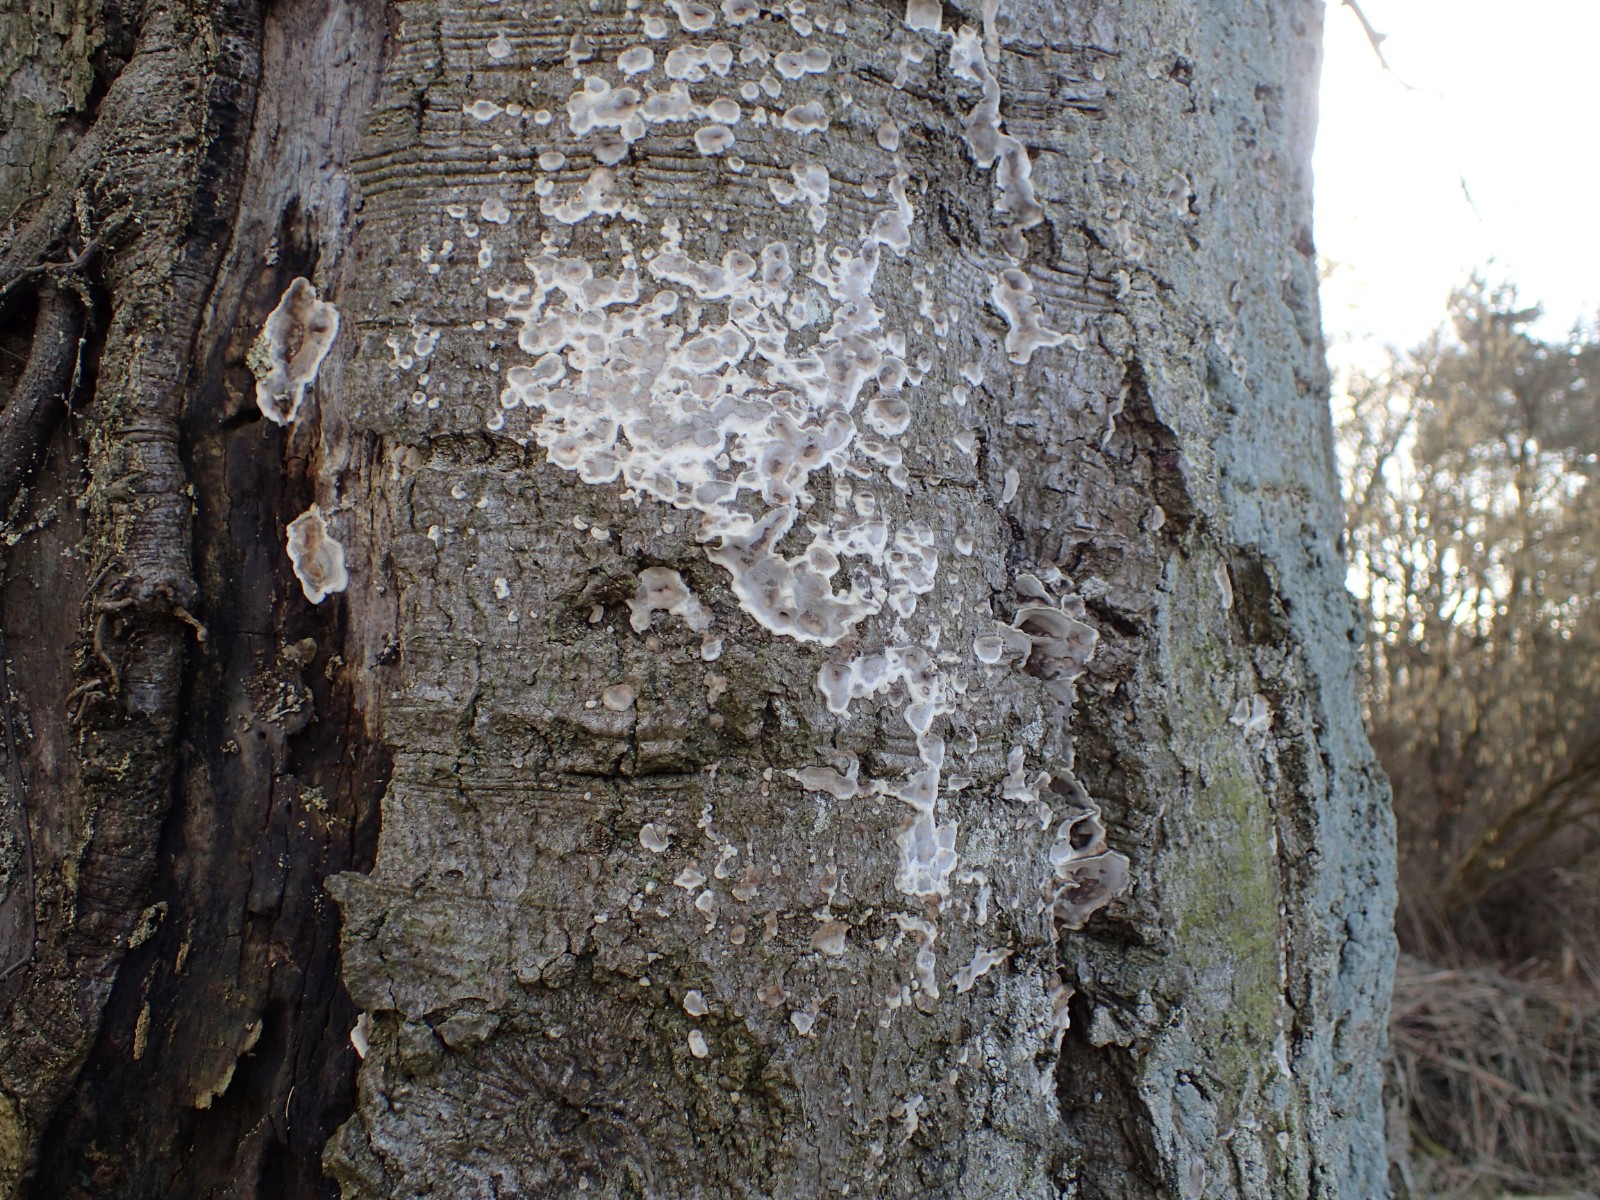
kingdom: Fungi
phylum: Basidiomycota
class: Agaricomycetes
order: Polyporales
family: Phanerochaetaceae
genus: Bjerkandera
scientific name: Bjerkandera adusta
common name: sveden sodporesvamp
